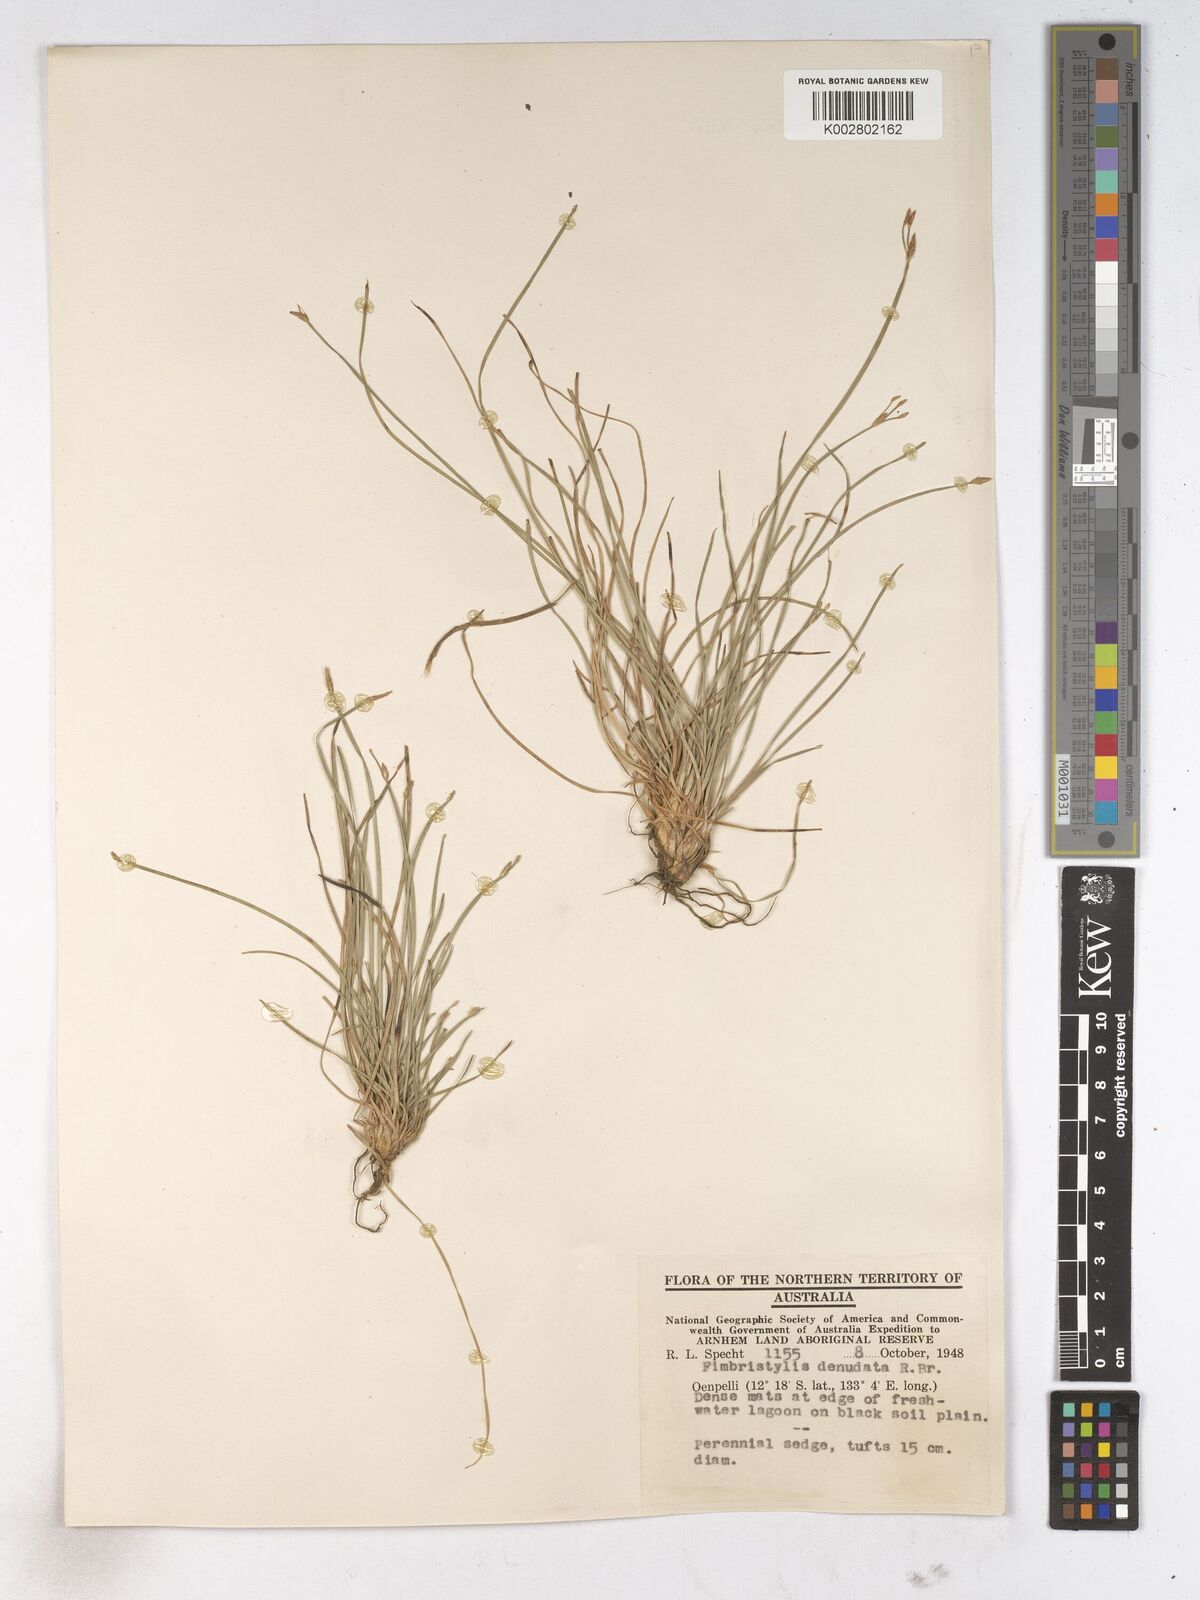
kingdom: Plantae
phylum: Tracheophyta
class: Liliopsida
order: Poales
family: Cyperaceae
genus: Fimbristylis
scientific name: Fimbristylis denudata
